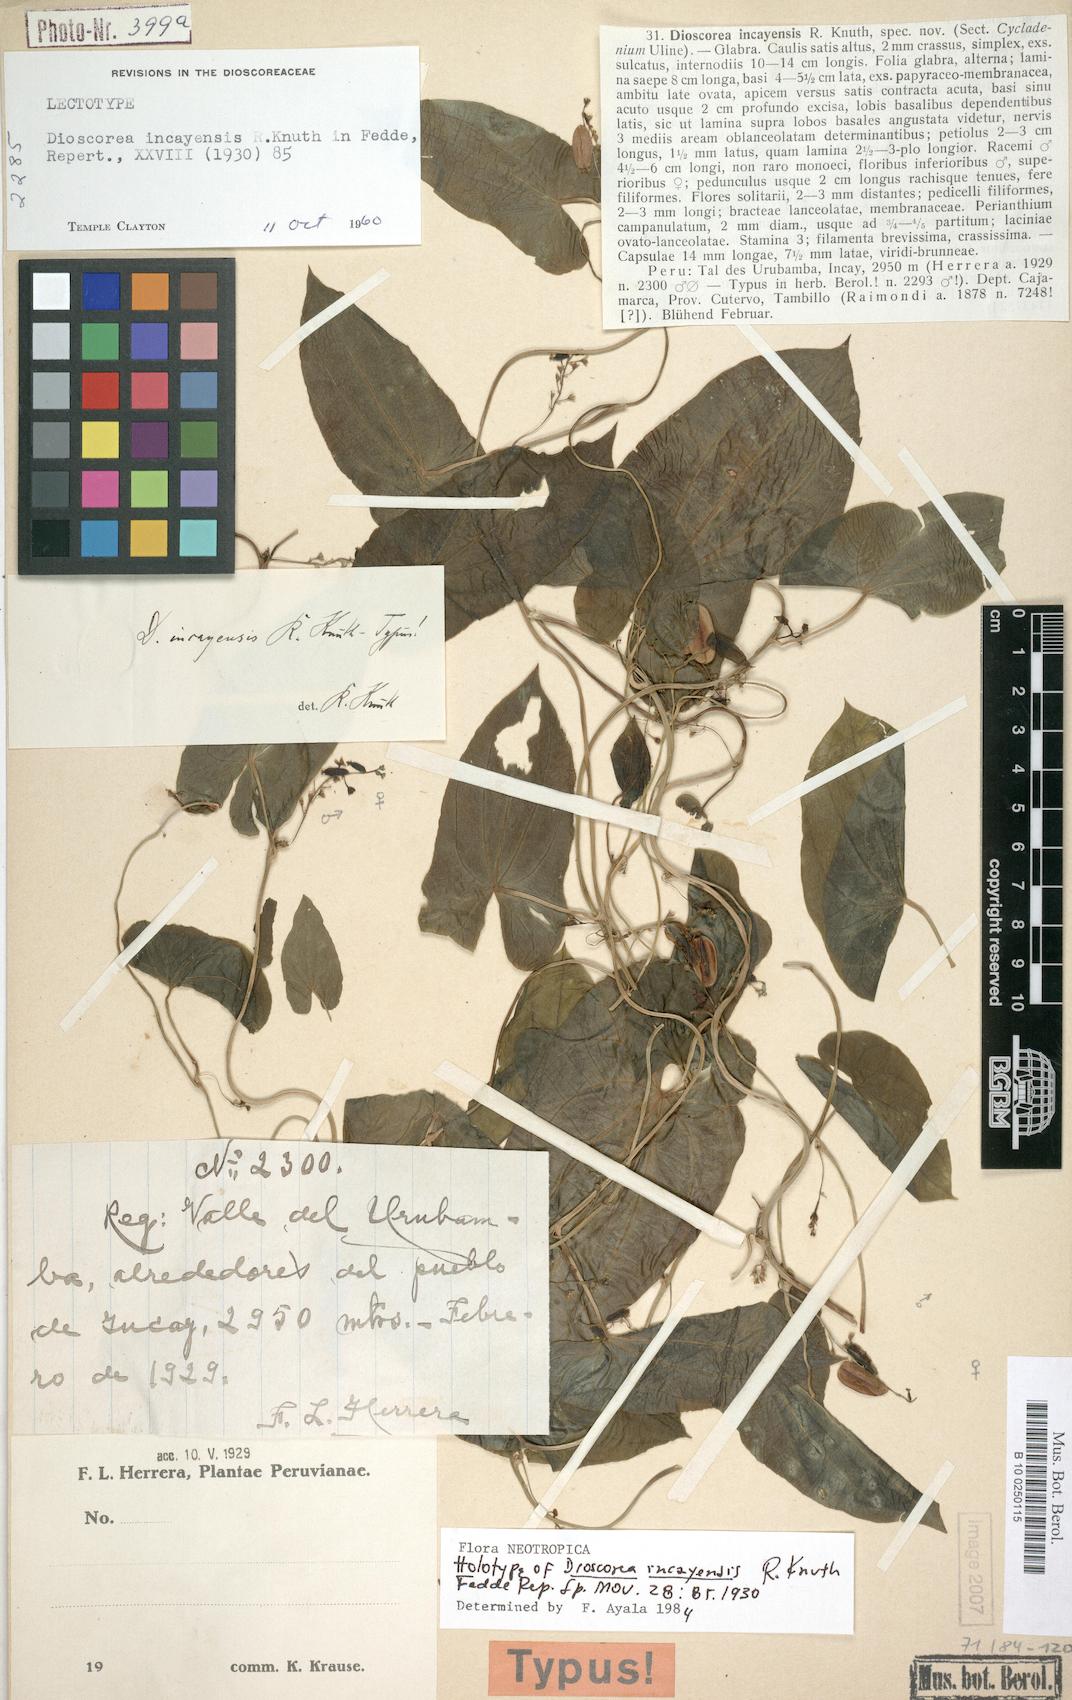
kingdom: Plantae
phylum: Tracheophyta
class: Liliopsida
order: Dioscoreales
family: Dioscoreaceae
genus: Dioscorea
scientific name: Dioscorea incayensis
